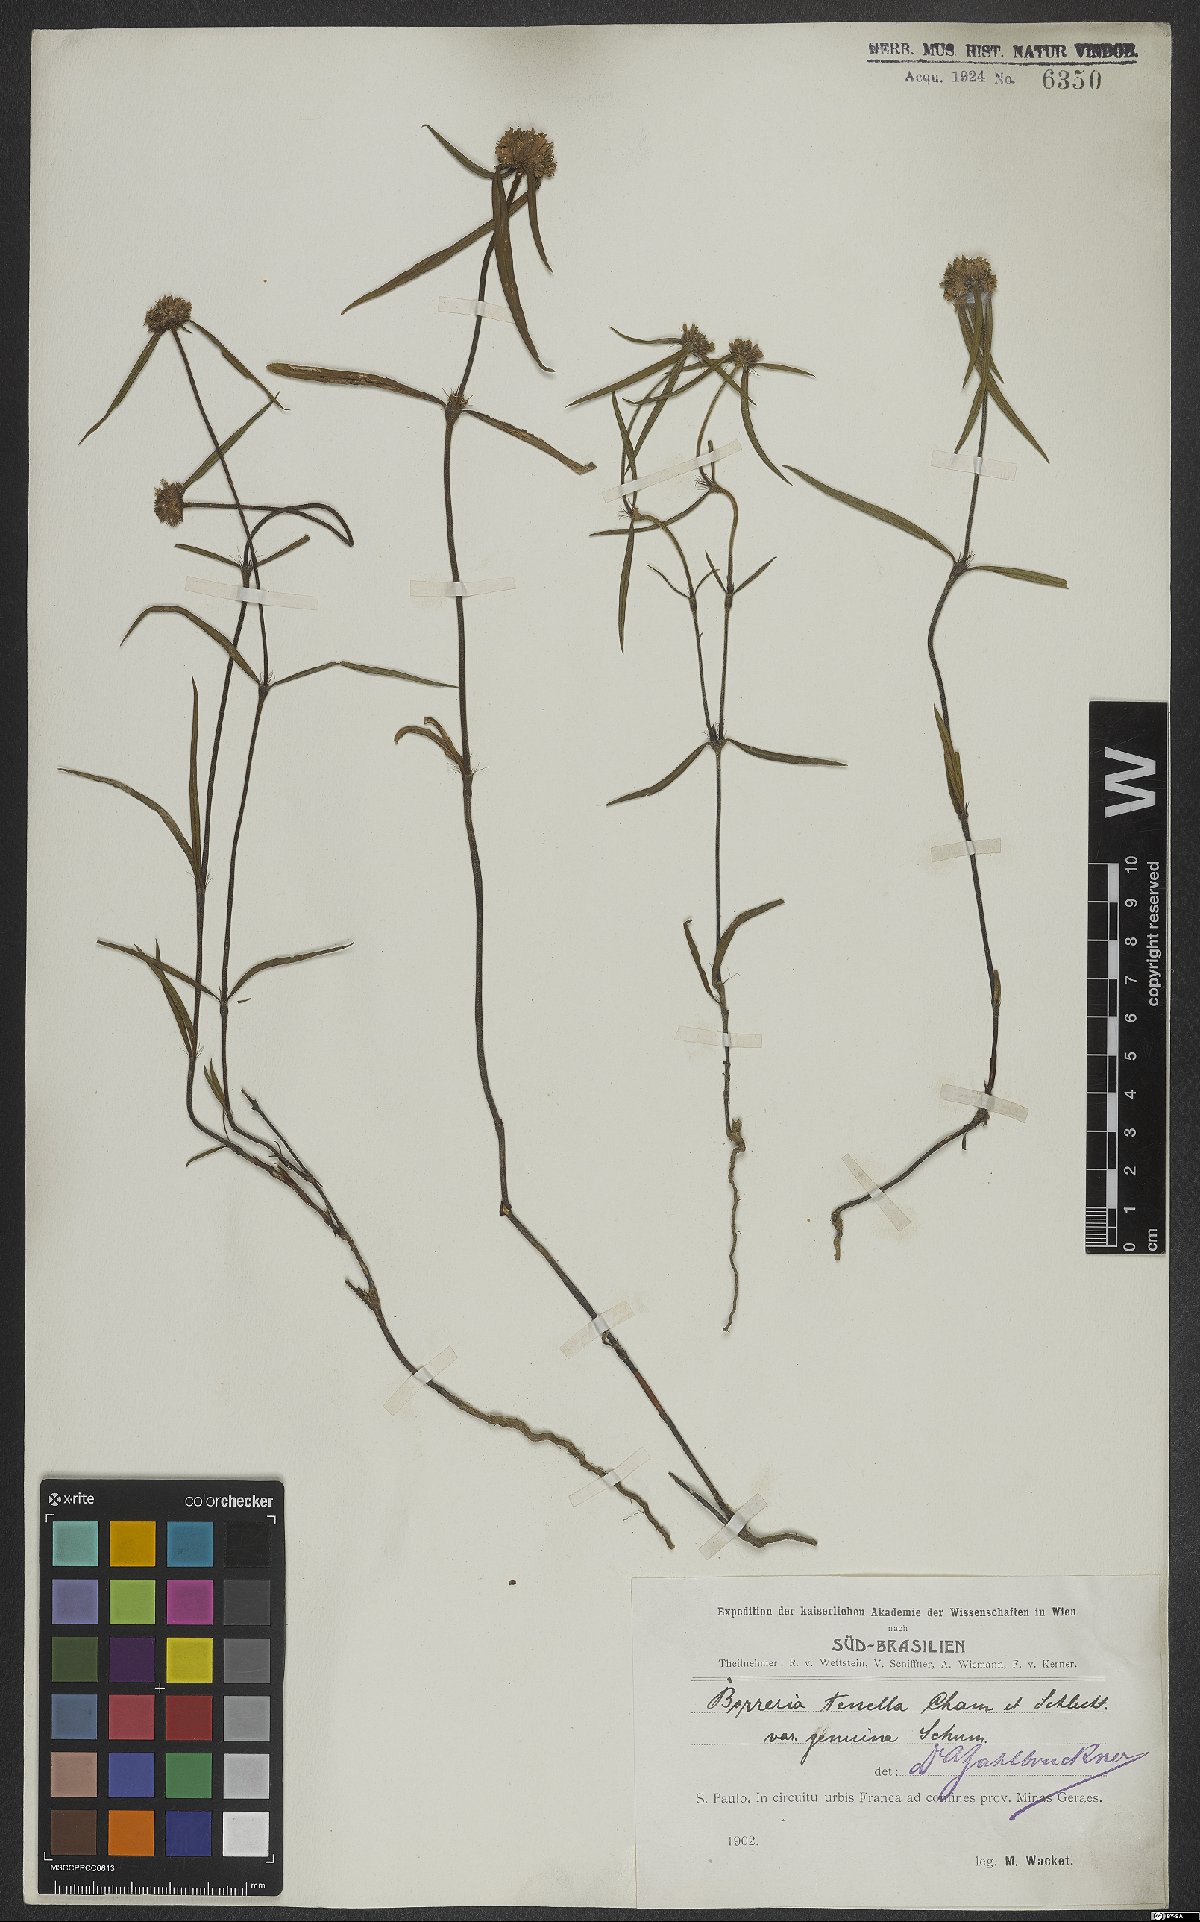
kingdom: Plantae
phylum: Tracheophyta
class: Magnoliopsida
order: Gentianales
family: Rubiaceae
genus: Spermacoce
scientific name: Spermacoce orinocensis
